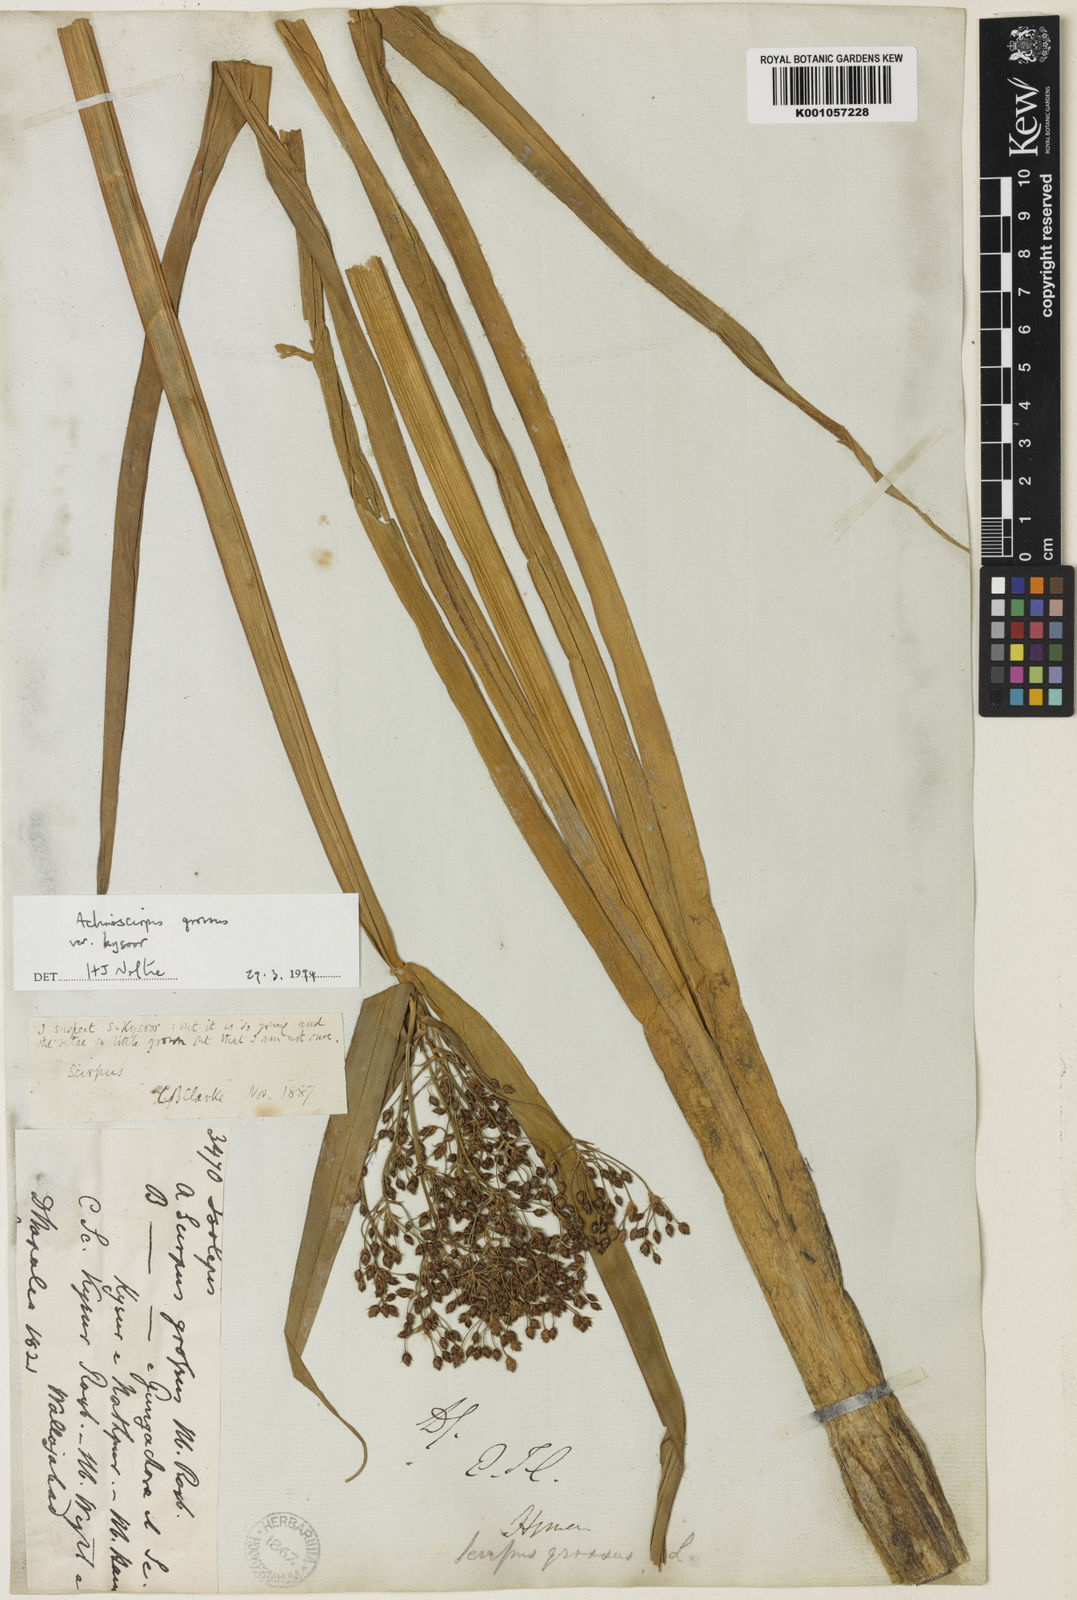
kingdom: Plantae
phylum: Tracheophyta
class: Liliopsida
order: Poales
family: Cyperaceae
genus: Actinoscirpus
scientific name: Actinoscirpus grossus
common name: Giant bur rush
